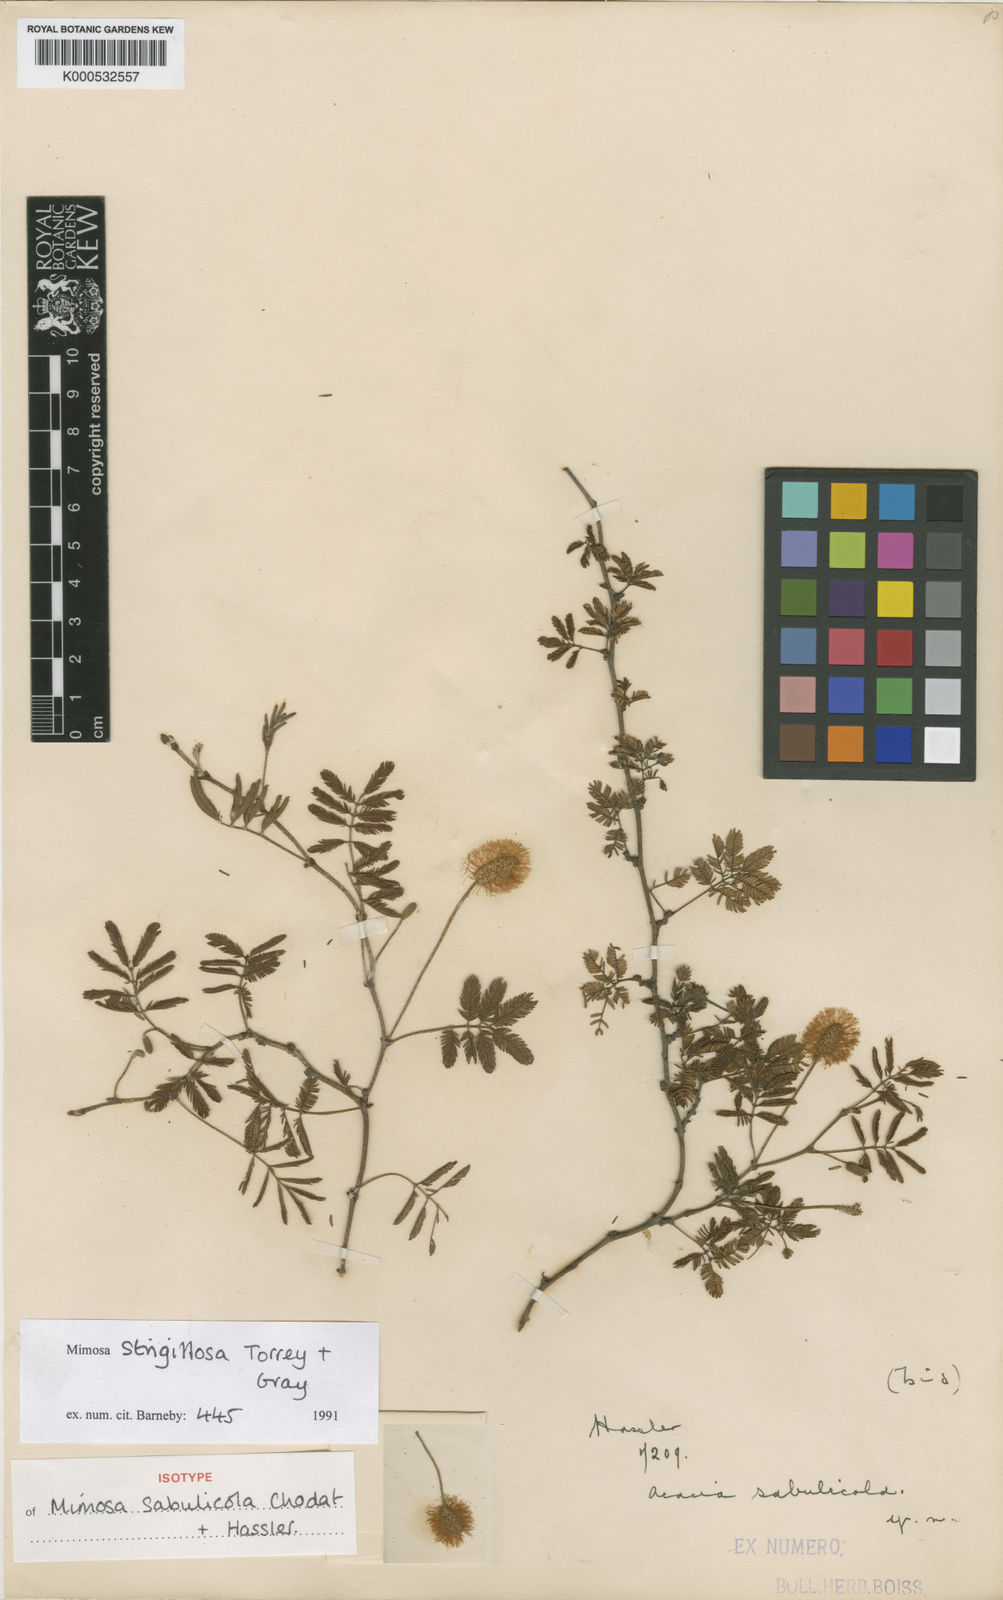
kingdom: Plantae
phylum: Tracheophyta
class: Magnoliopsida
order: Fabales
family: Fabaceae
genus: Mimosa
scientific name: Mimosa strigillosa
